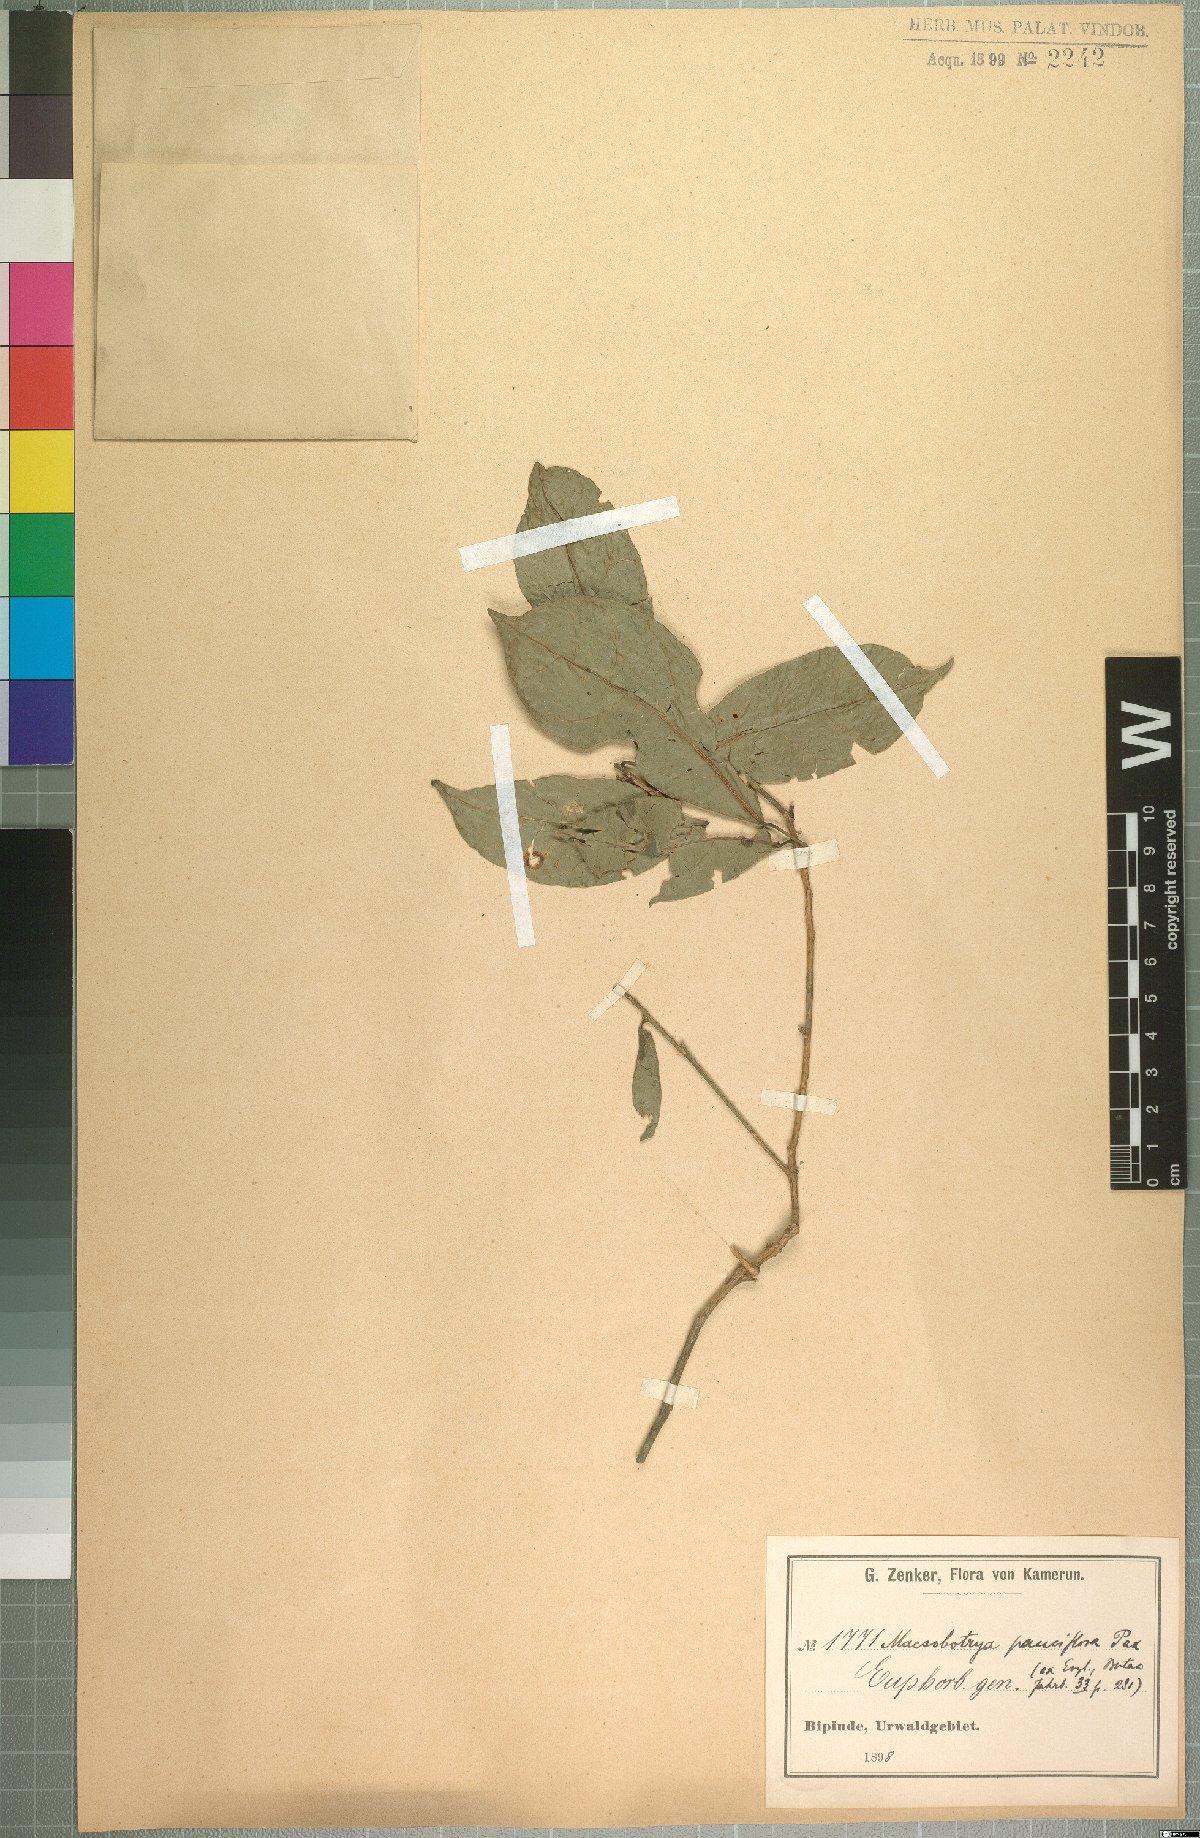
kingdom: Plantae
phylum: Tracheophyta
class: Magnoliopsida
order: Malpighiales
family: Phyllanthaceae
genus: Maesobotrya
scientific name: Maesobotrya pauciflora
